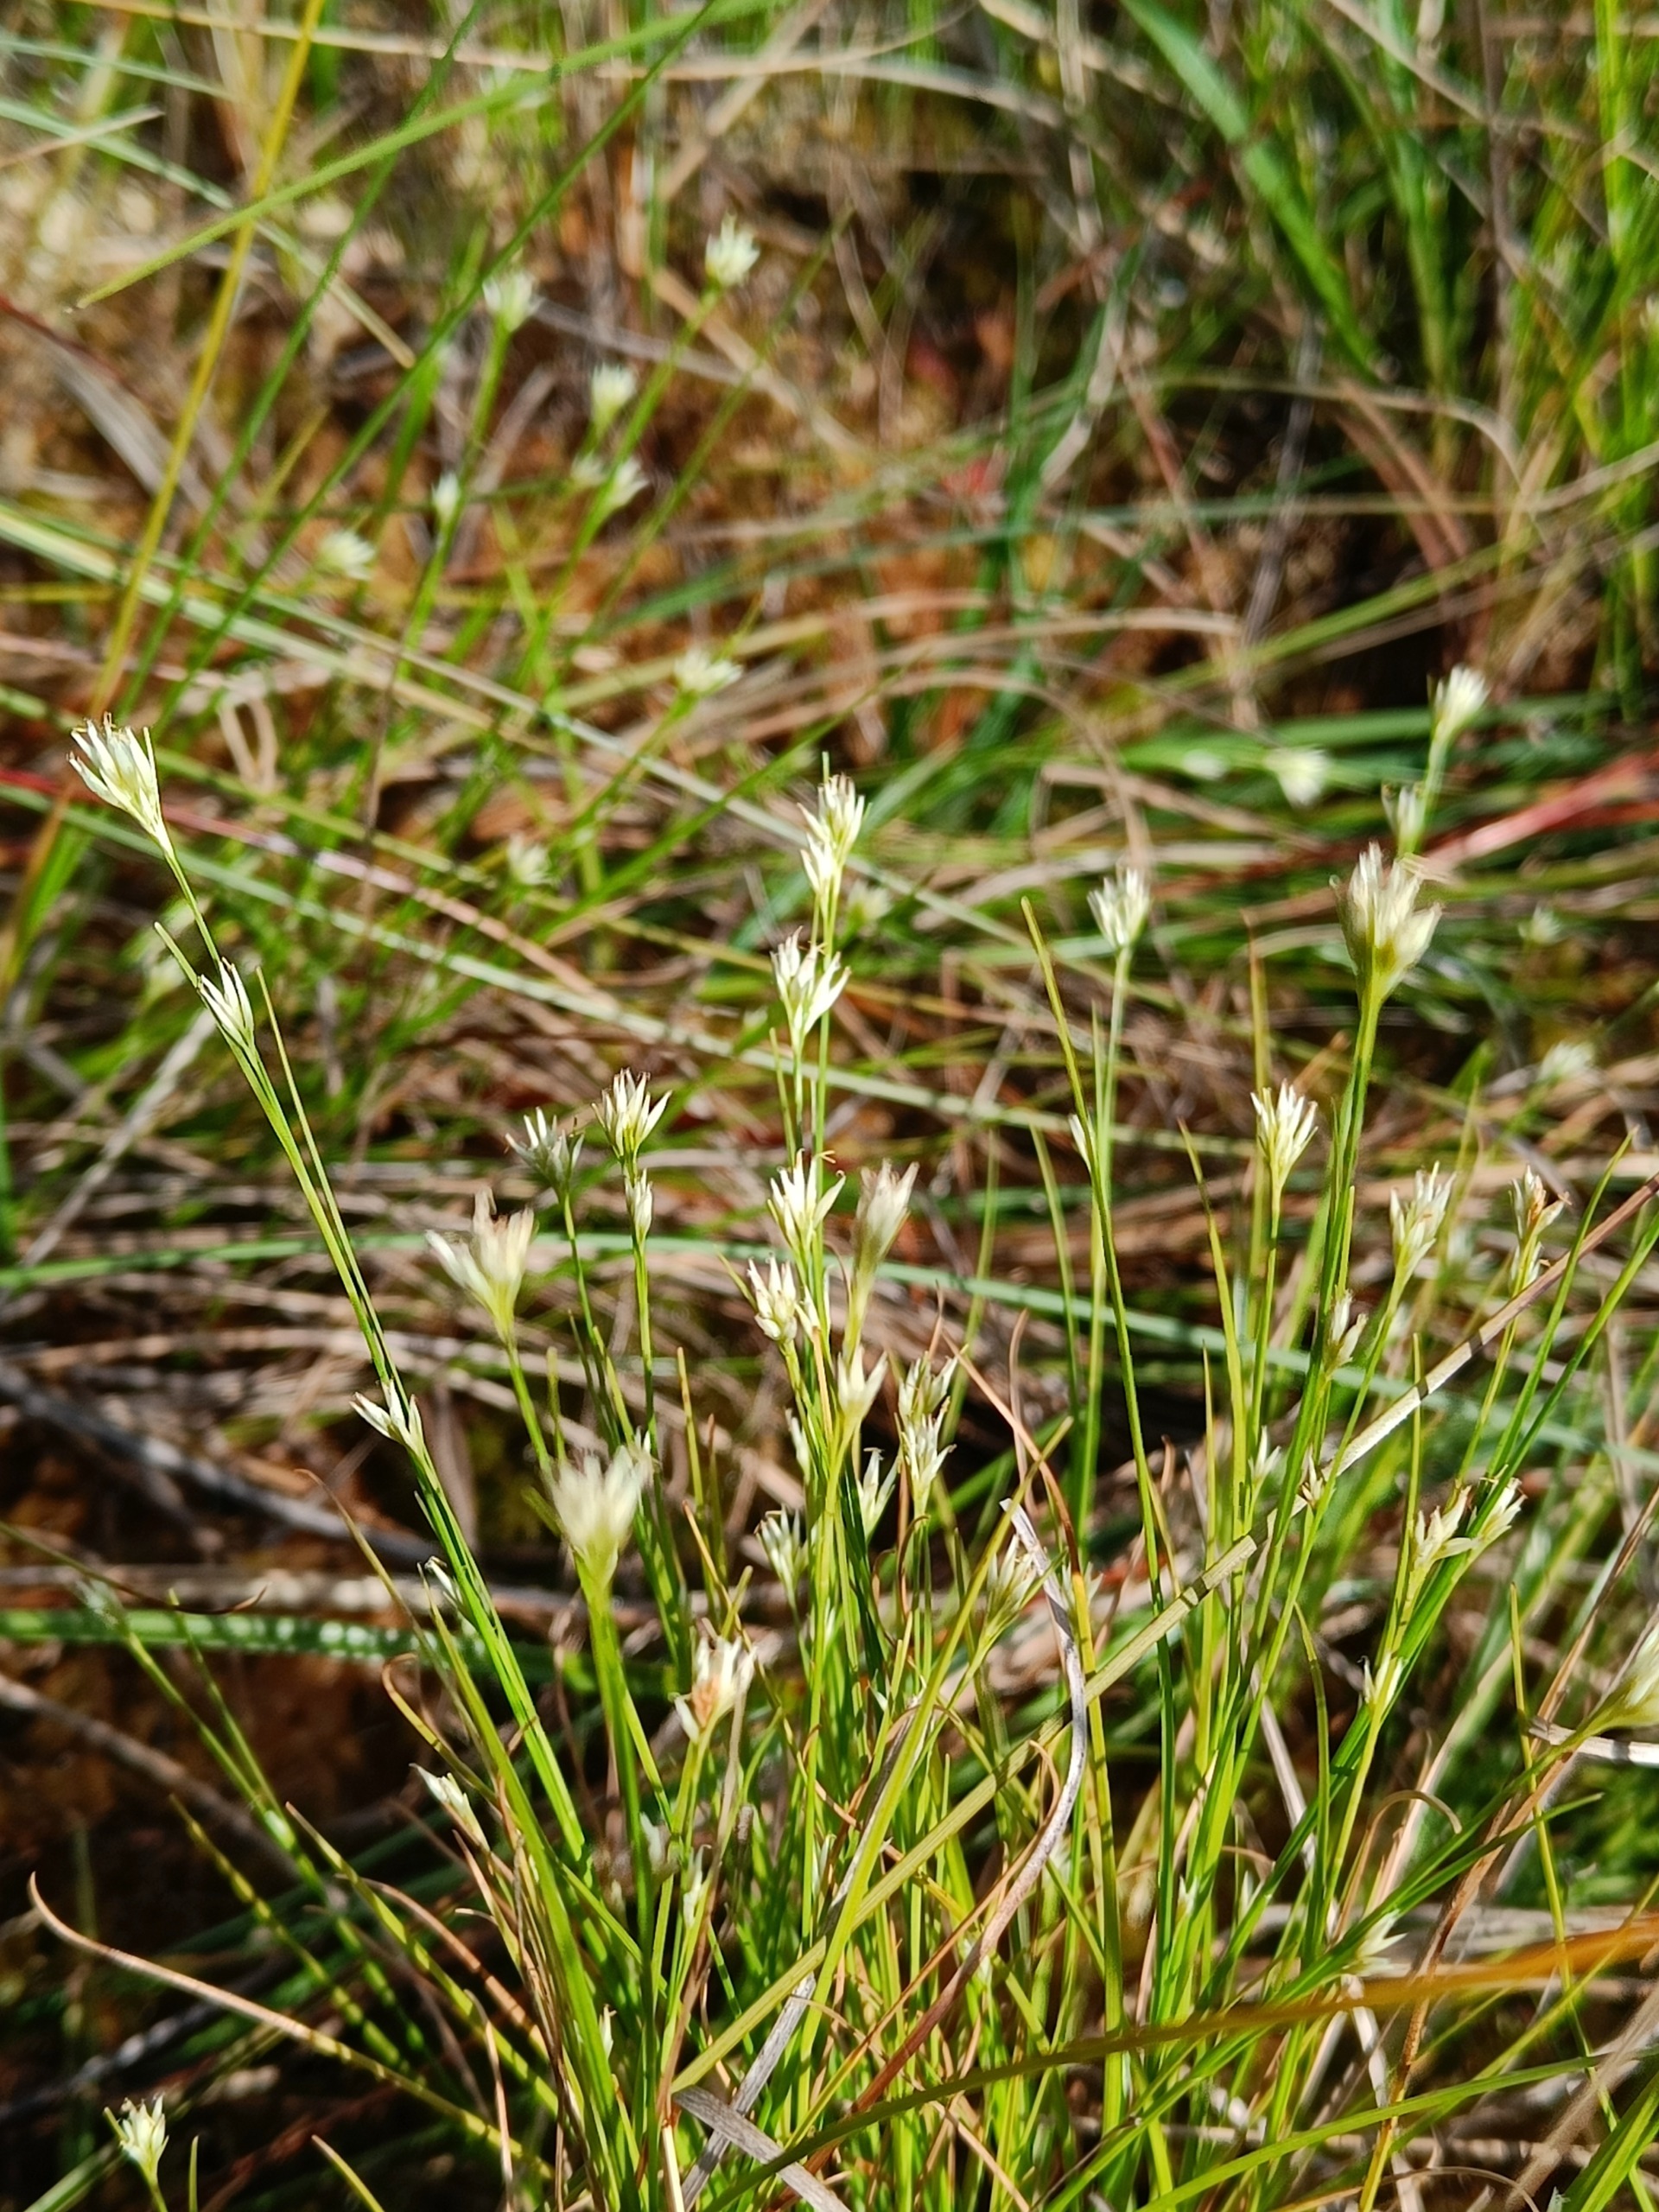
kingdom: Plantae
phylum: Tracheophyta
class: Liliopsida
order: Poales
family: Cyperaceae
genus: Rhynchospora
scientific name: Rhynchospora alba
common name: Hvid næbfrø
